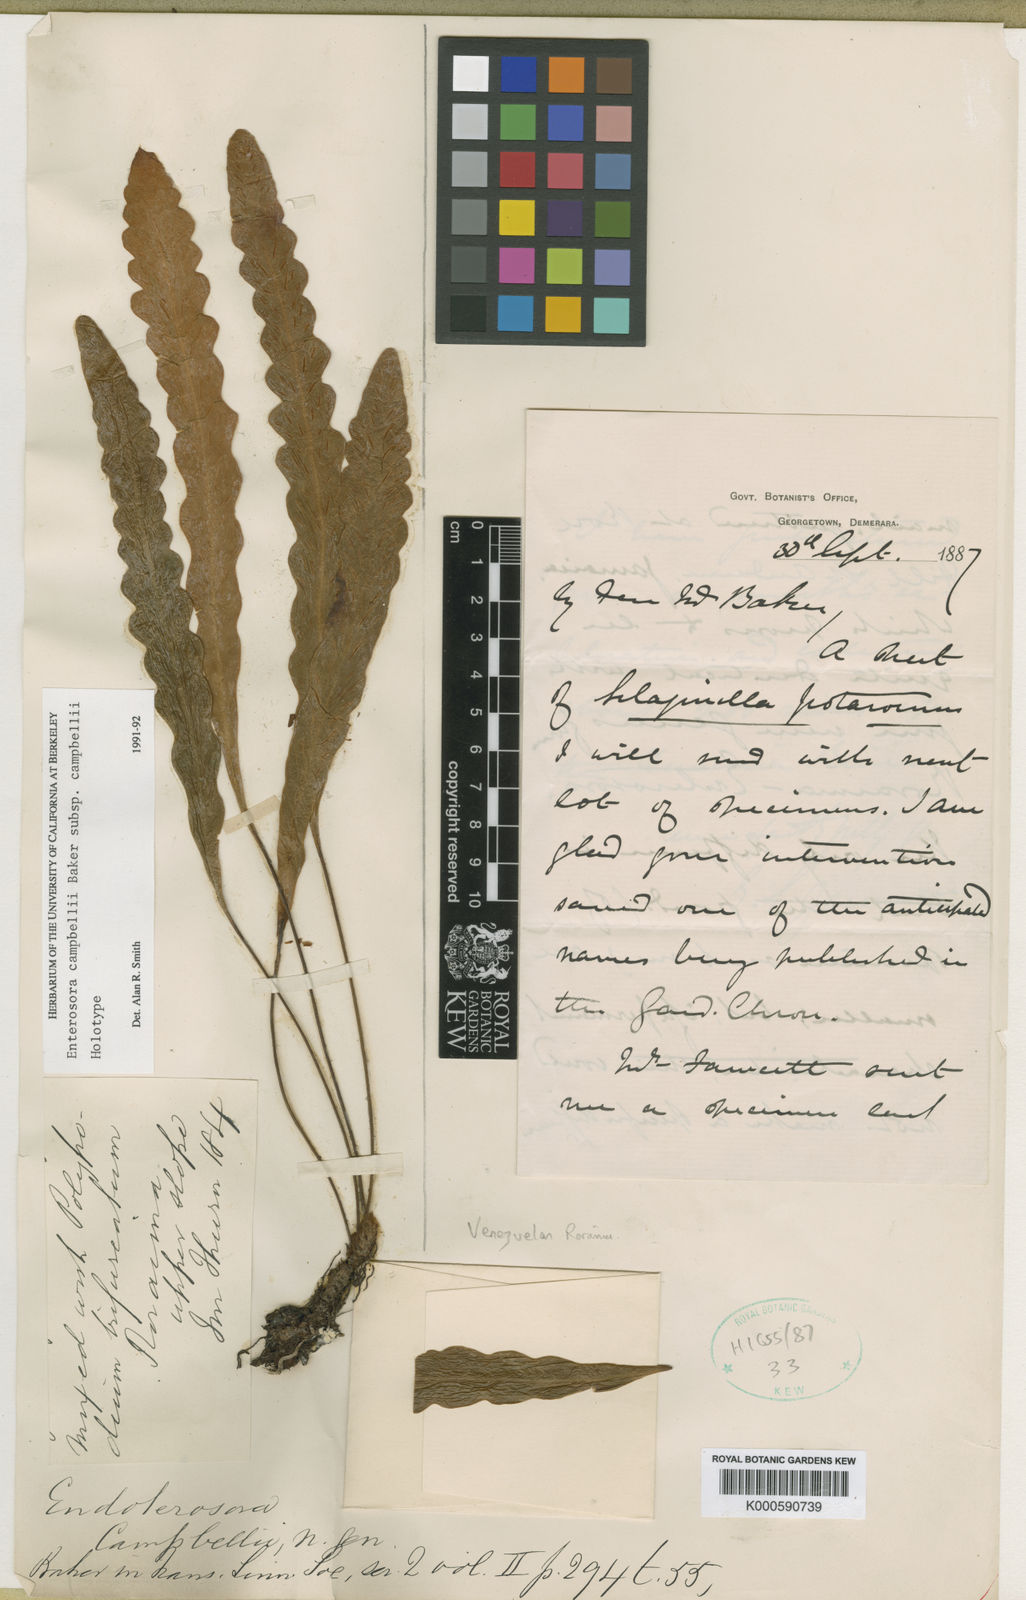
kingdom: Plantae
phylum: Tracheophyta
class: Polypodiopsida
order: Polypodiales
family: Polypodiaceae
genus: Enterosora
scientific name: Enterosora campbellii
